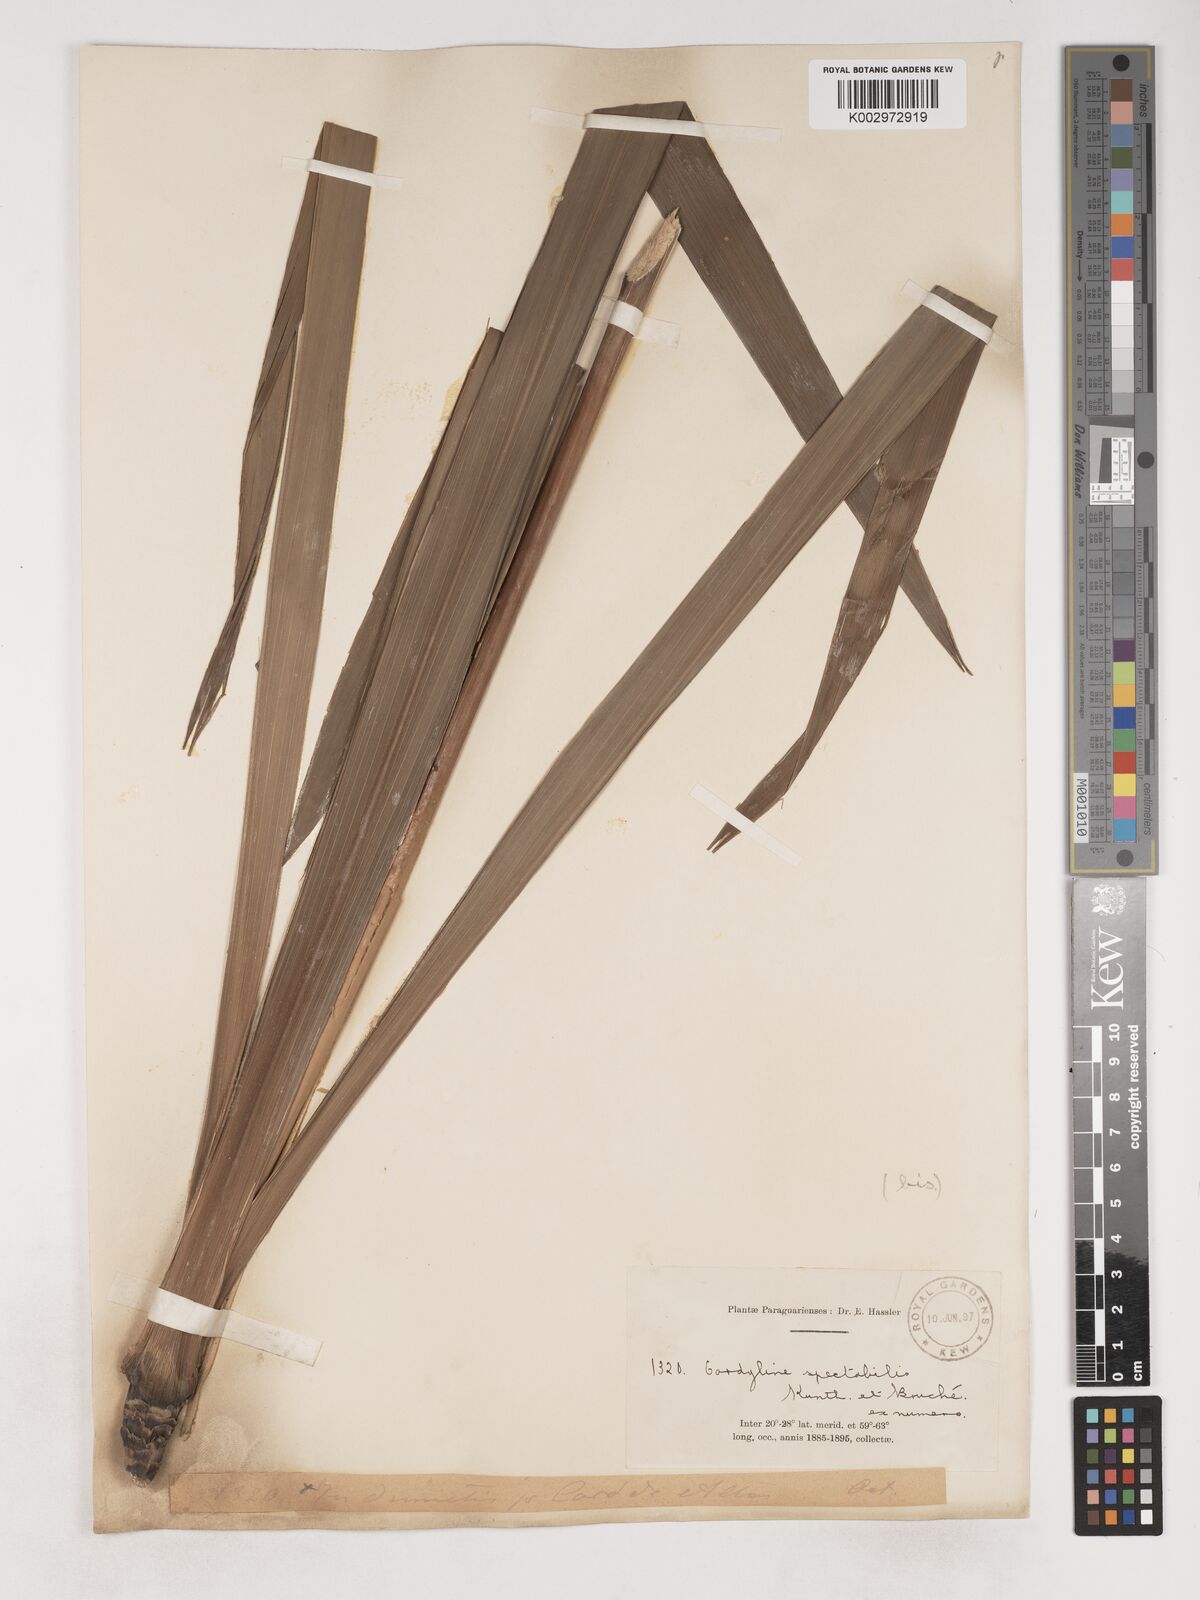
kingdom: Plantae
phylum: Tracheophyta
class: Liliopsida
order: Asparagales
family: Asparagaceae
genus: Cordyline
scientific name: Cordyline
